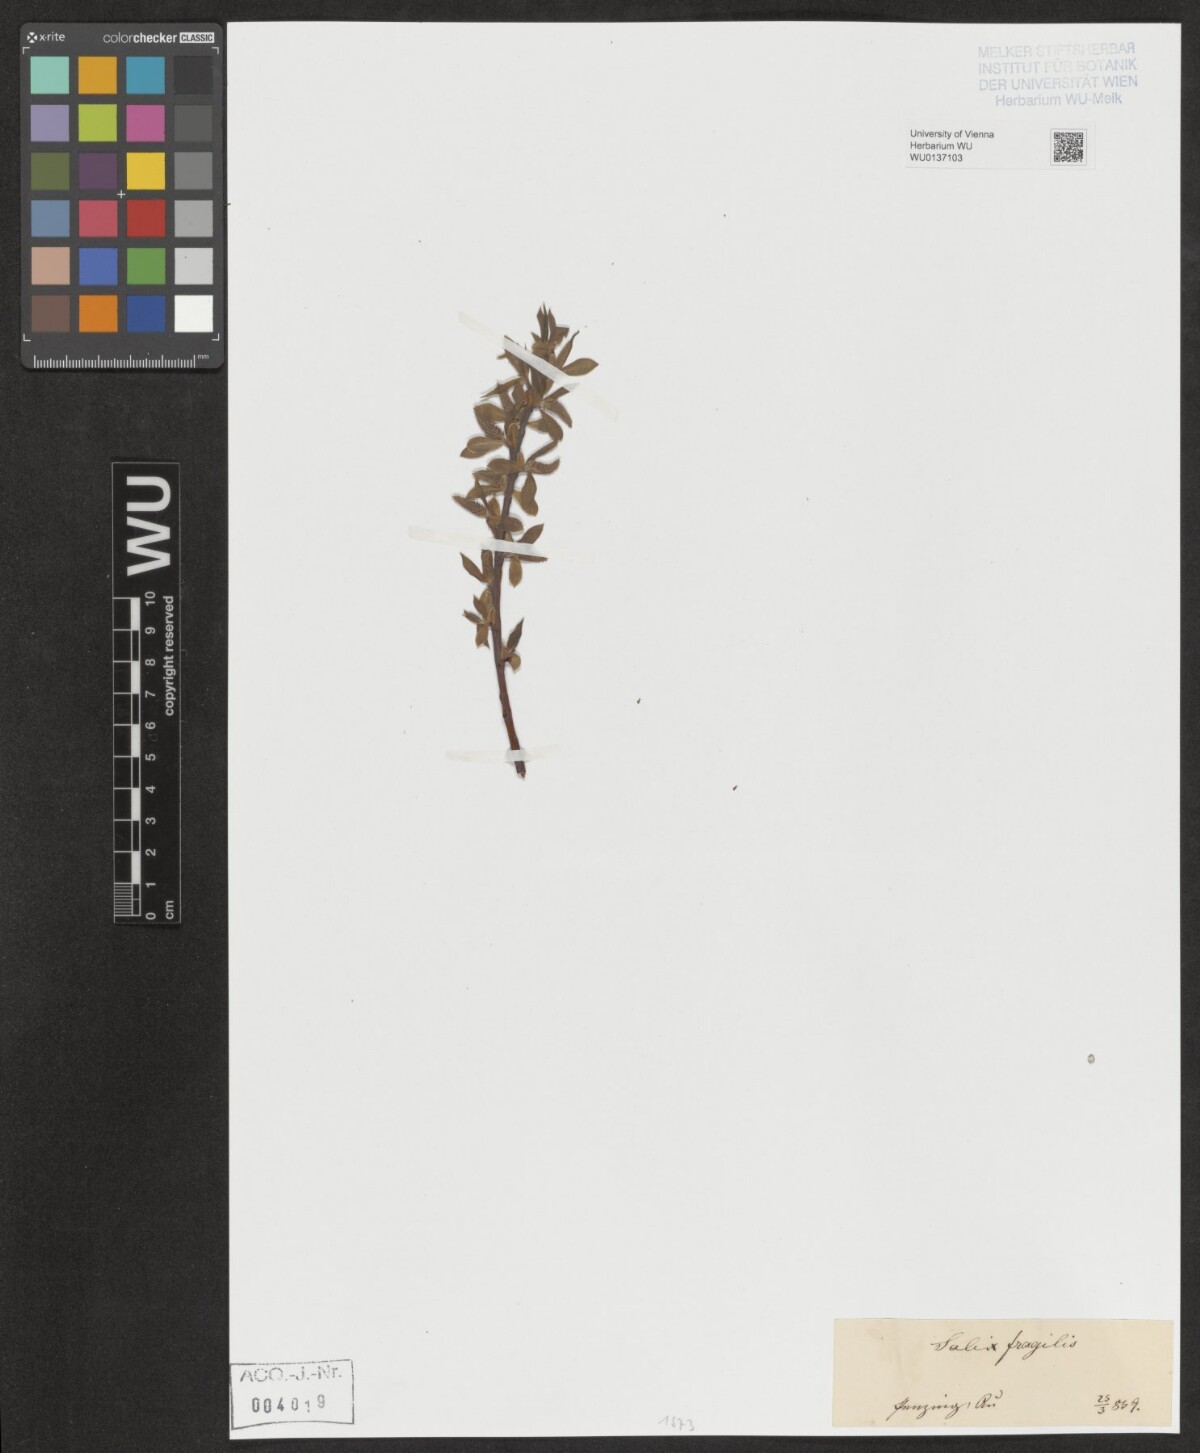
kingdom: Plantae
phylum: Tracheophyta
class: Magnoliopsida
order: Malpighiales
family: Salicaceae
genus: Salix
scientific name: Salix fragilis
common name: Crack willow
